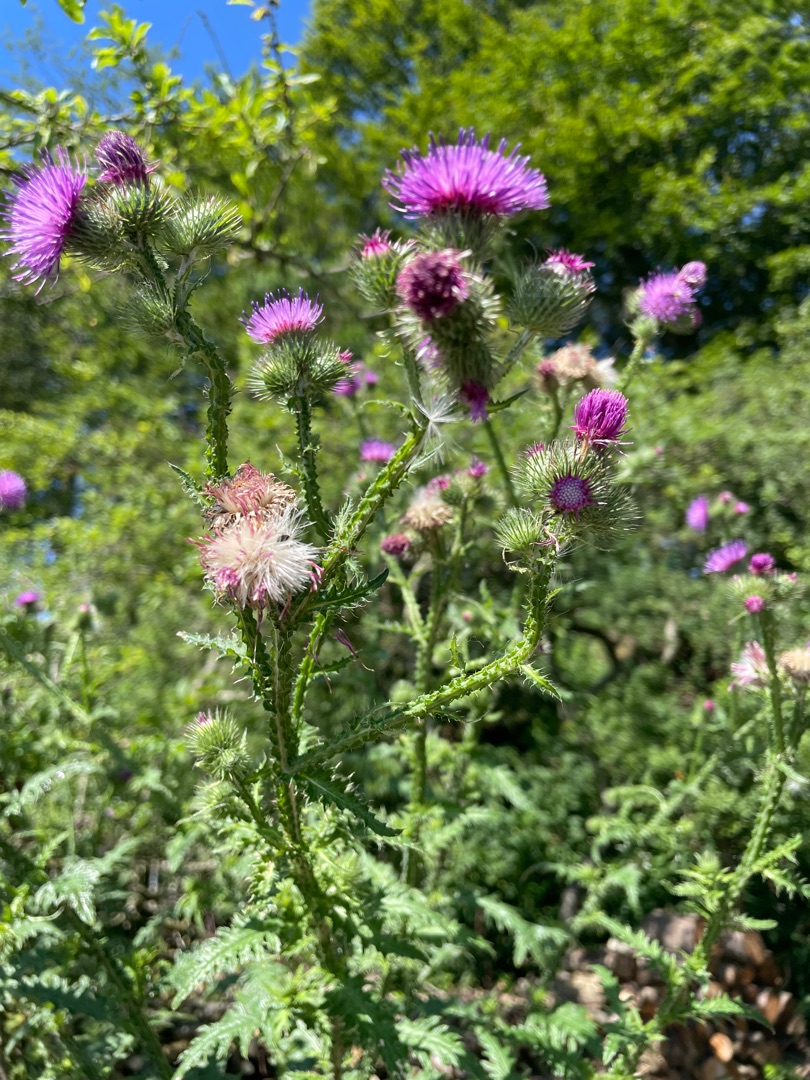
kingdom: Plantae
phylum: Tracheophyta
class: Magnoliopsida
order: Asterales
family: Asteraceae
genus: Carduus
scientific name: Carduus crispus
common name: Kruset tidsel
